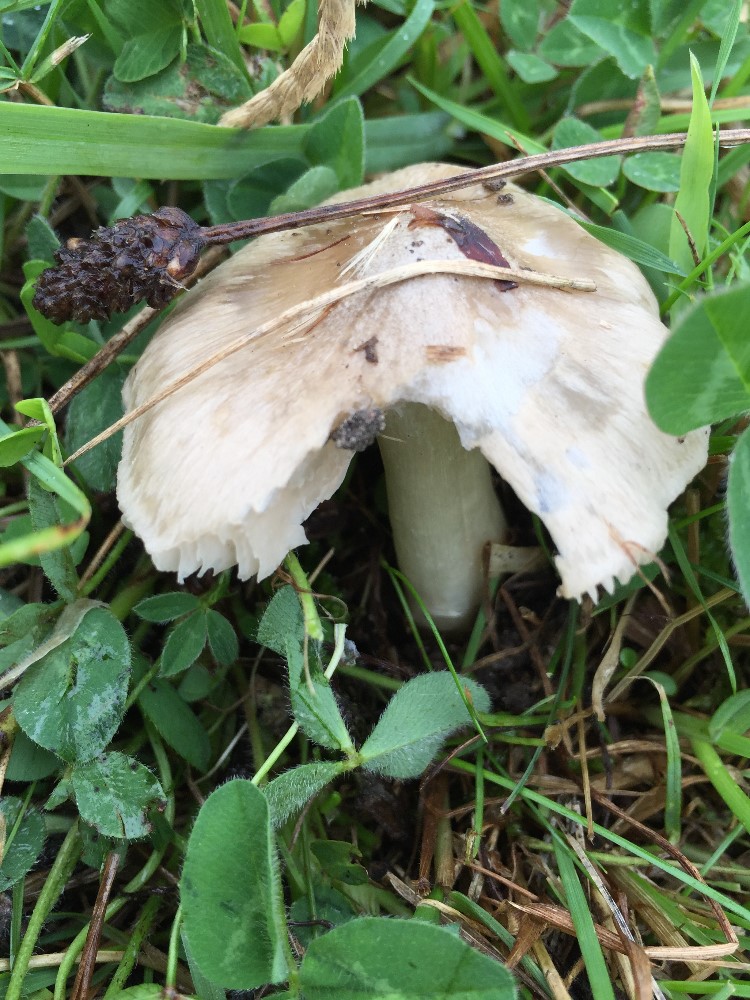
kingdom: Fungi
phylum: Basidiomycota
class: Agaricomycetes
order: Agaricales
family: Entolomataceae
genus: Entoloma
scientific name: Entoloma prunuloides
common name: mel-rødblad
